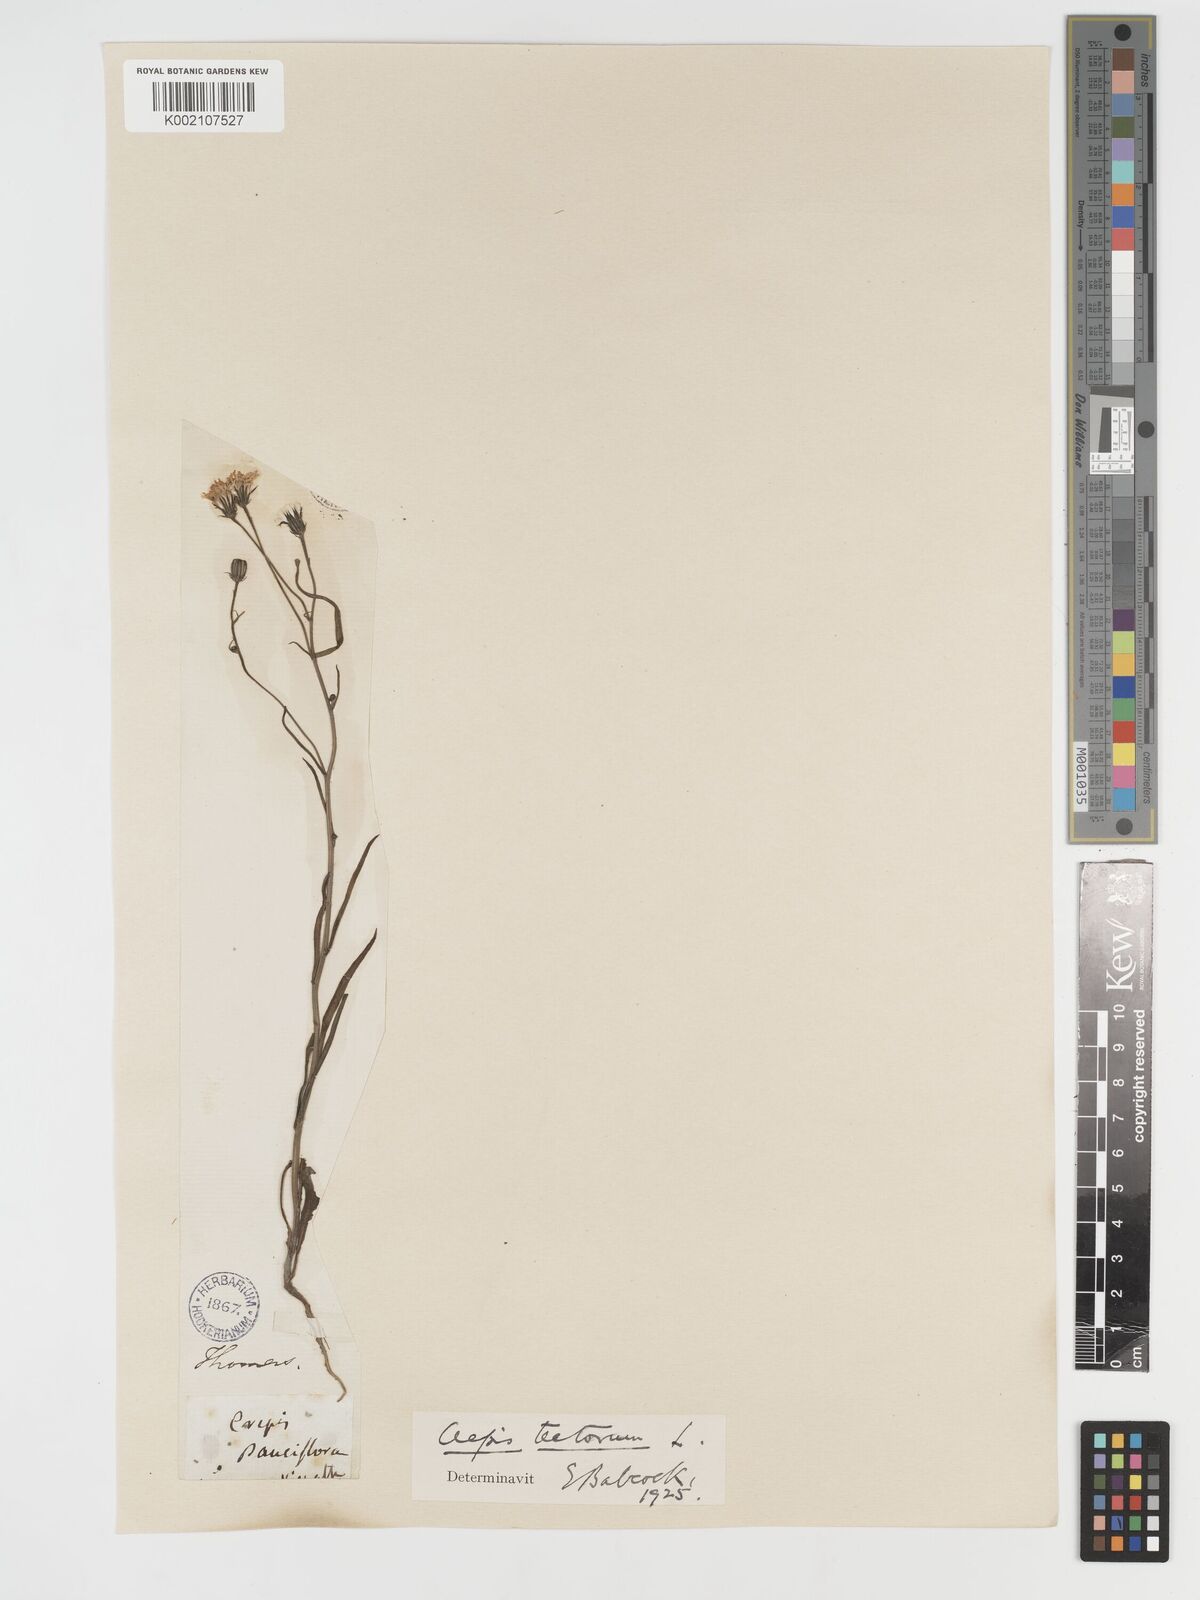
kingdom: Plantae
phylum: Tracheophyta
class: Magnoliopsida
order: Asterales
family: Asteraceae
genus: Crepis
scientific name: Crepis tectorum
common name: Narrow-leaved hawk's-beard
